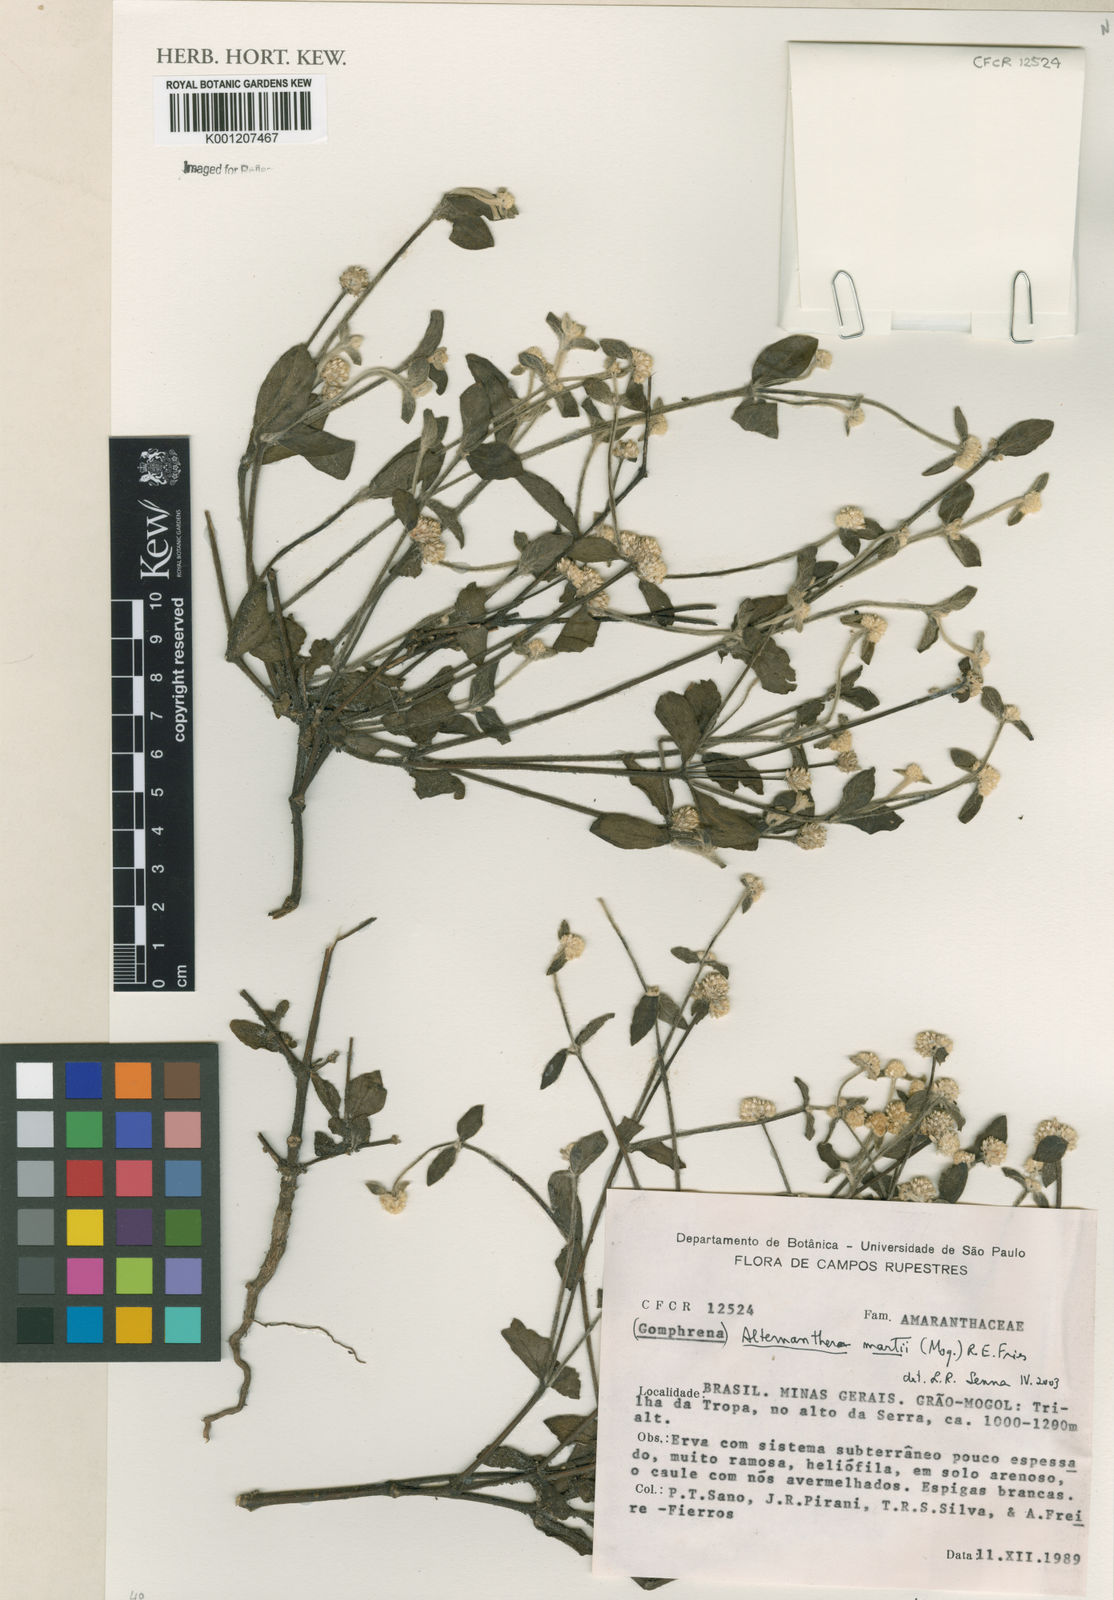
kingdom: Plantae
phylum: Tracheophyta
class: Magnoliopsida
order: Caryophyllales
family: Amaranthaceae
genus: Alternanthera
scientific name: Alternanthera martii
